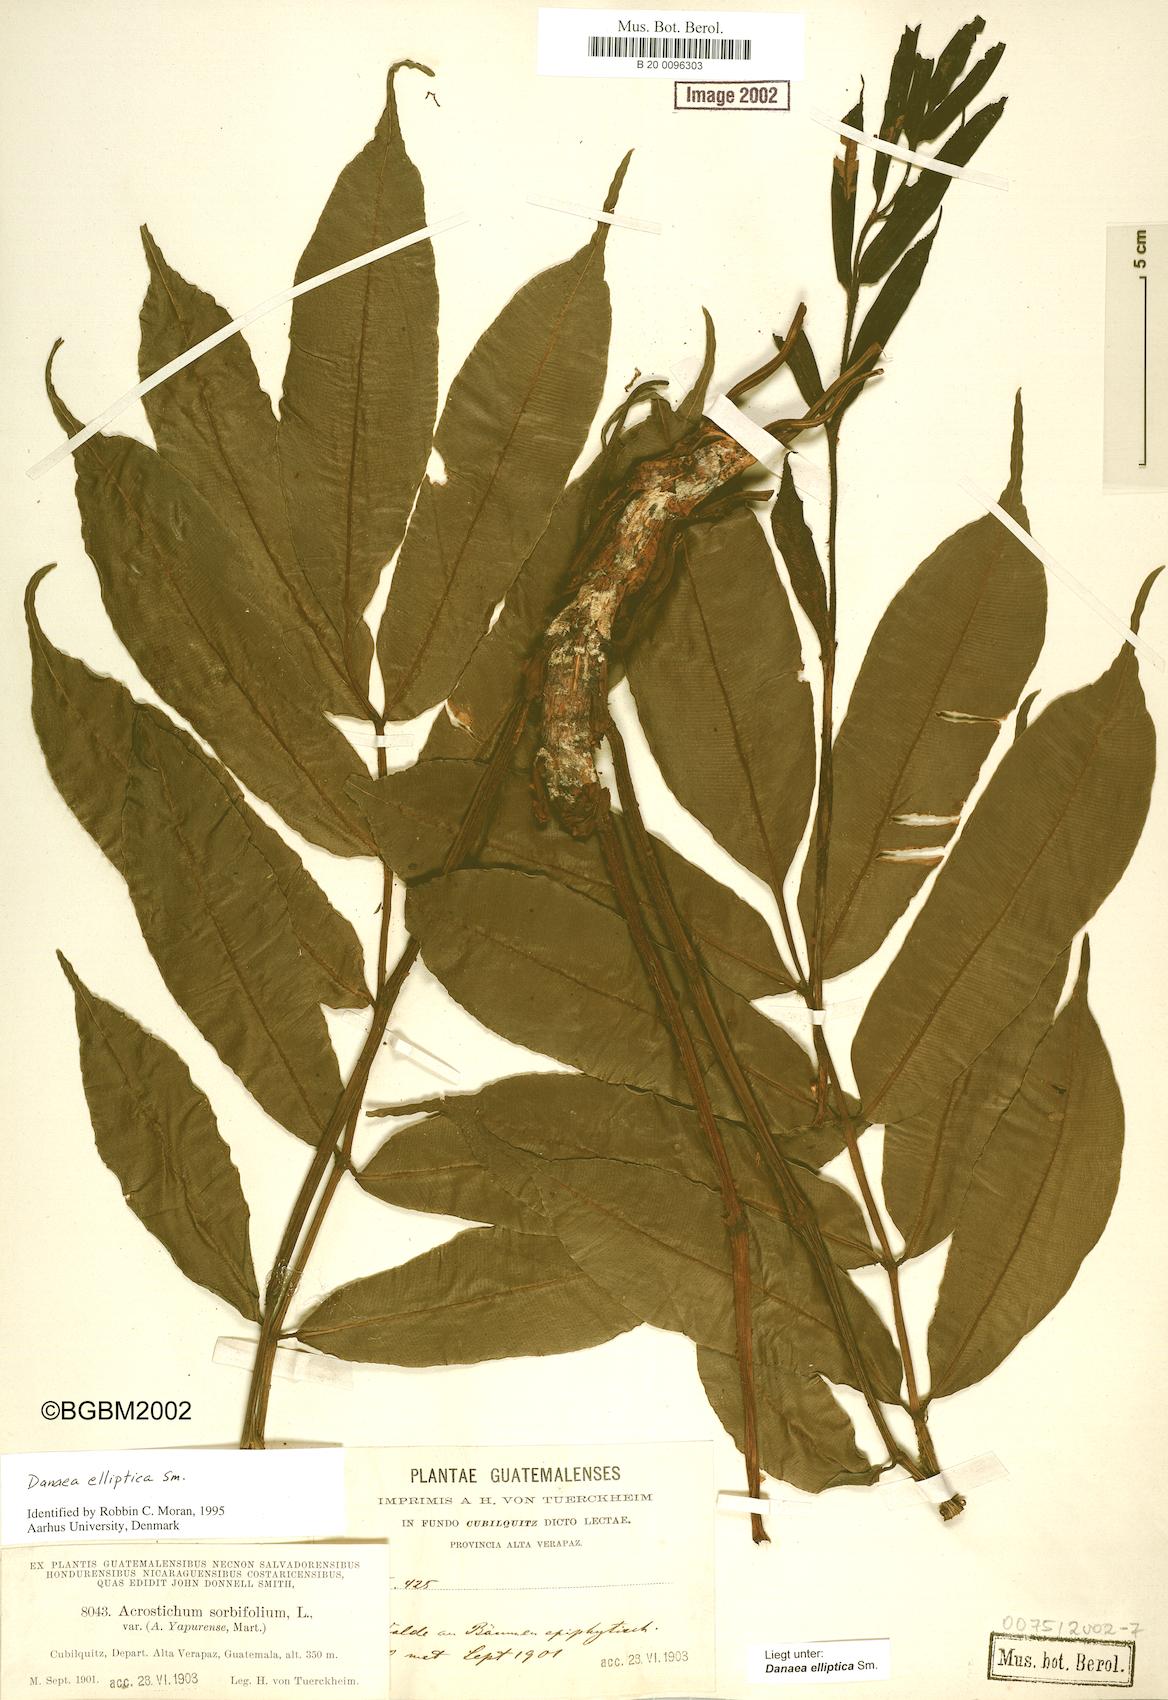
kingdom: Plantae
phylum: Tracheophyta
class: Polypodiopsida
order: Marattiales
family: Marattiaceae
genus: Danaea
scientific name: Danaea nodosa
